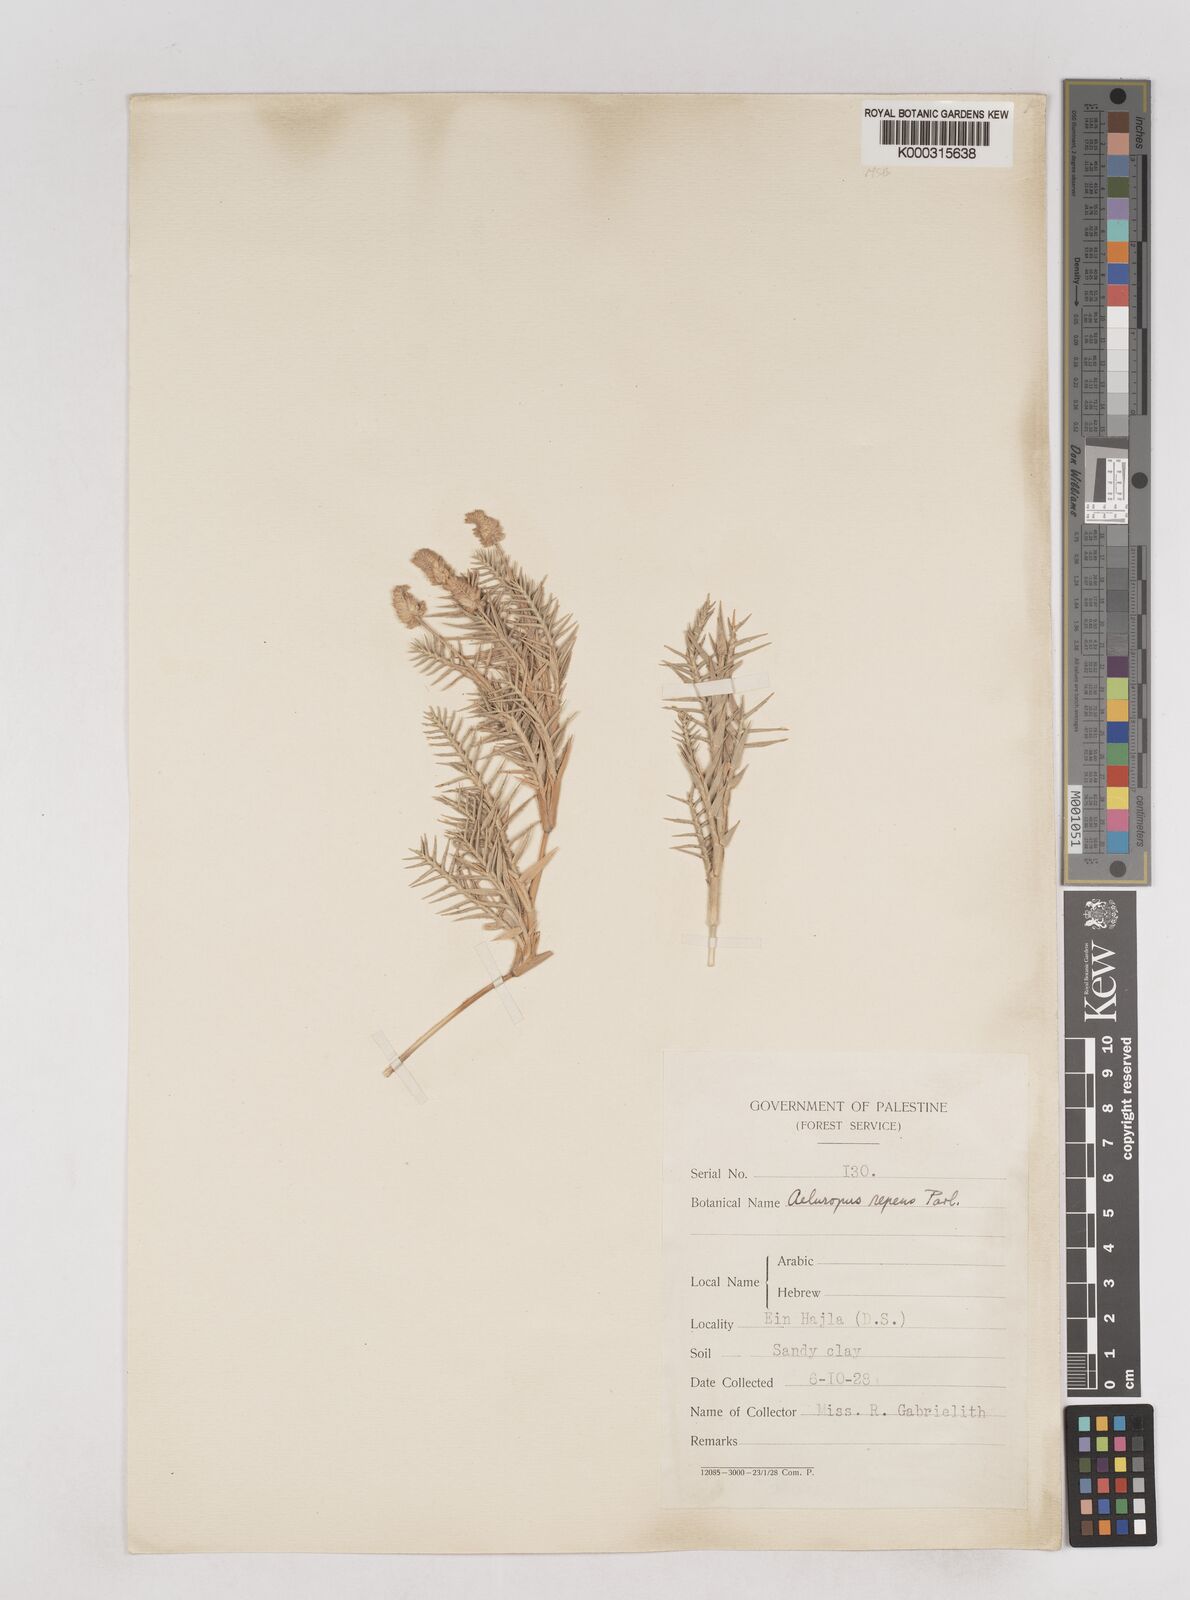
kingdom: Plantae
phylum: Tracheophyta
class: Liliopsida
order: Poales
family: Poaceae
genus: Aeluropus
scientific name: Aeluropus lagopoides
